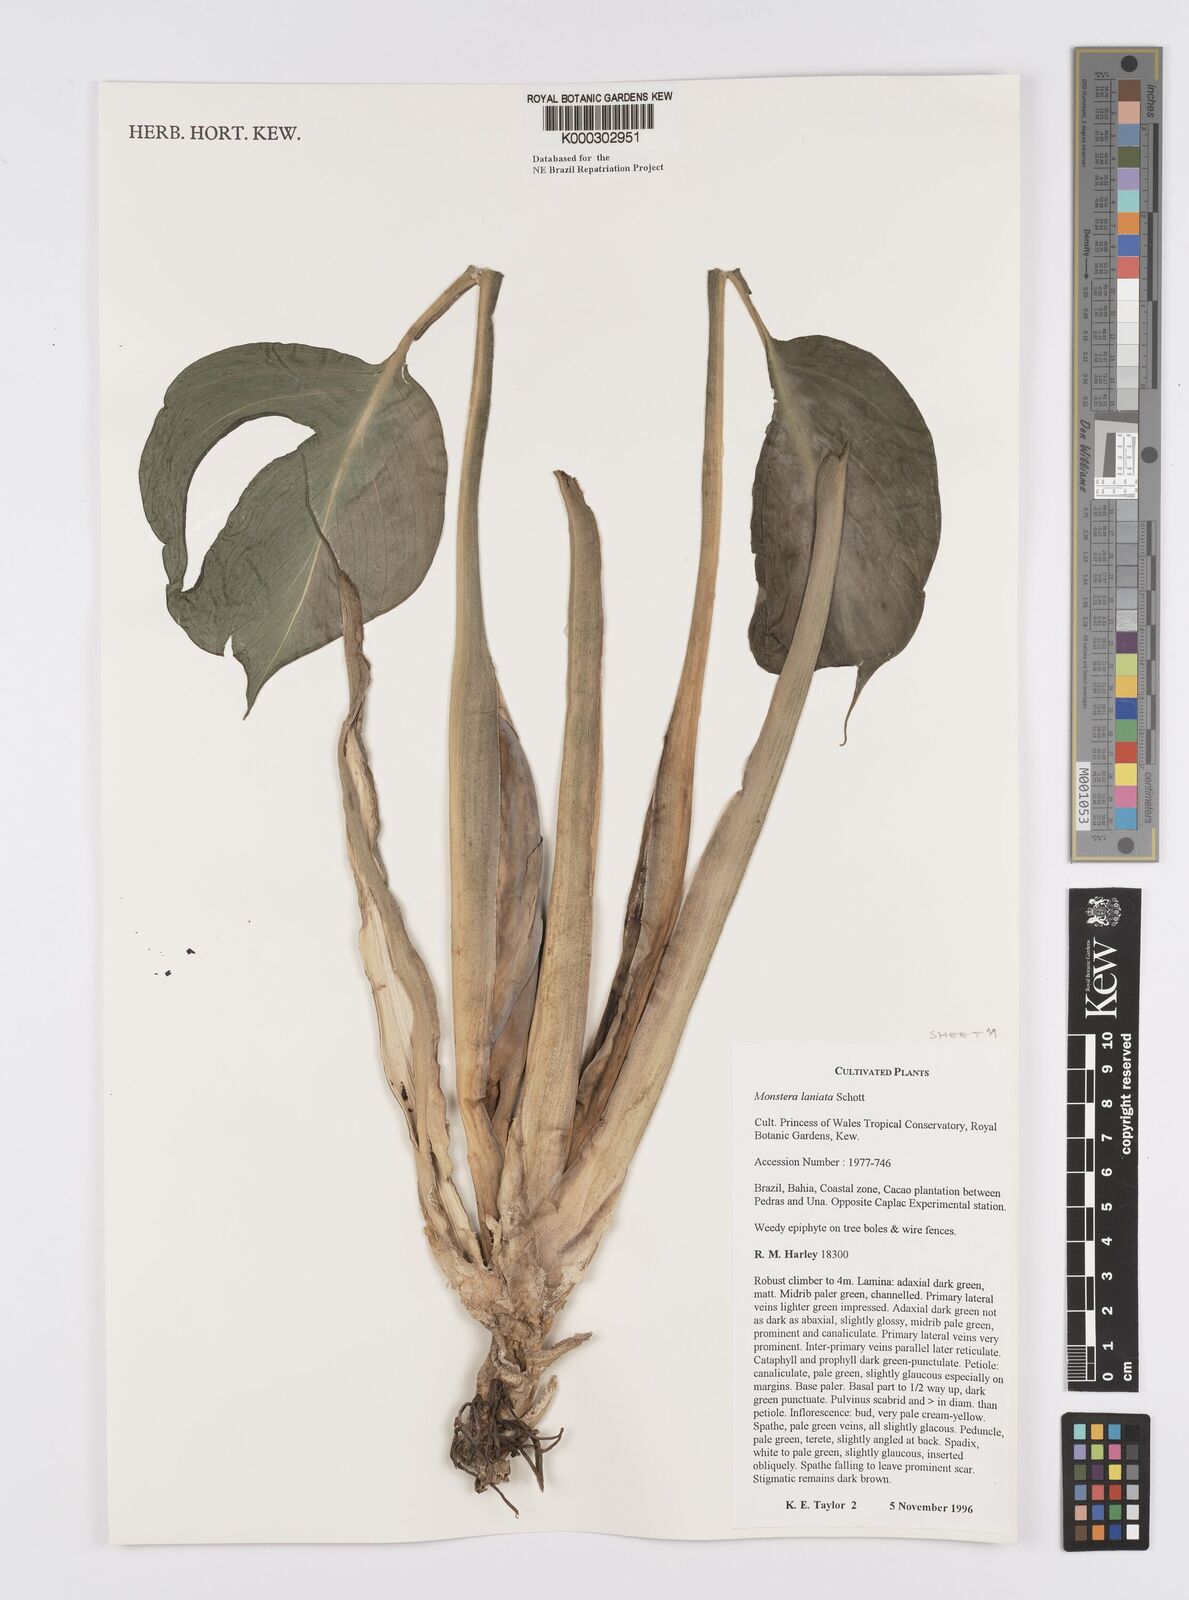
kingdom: Plantae
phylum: Tracheophyta
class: Liliopsida
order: Alismatales
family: Araceae
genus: Monstera
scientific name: Monstera adansonii
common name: Tarovine
